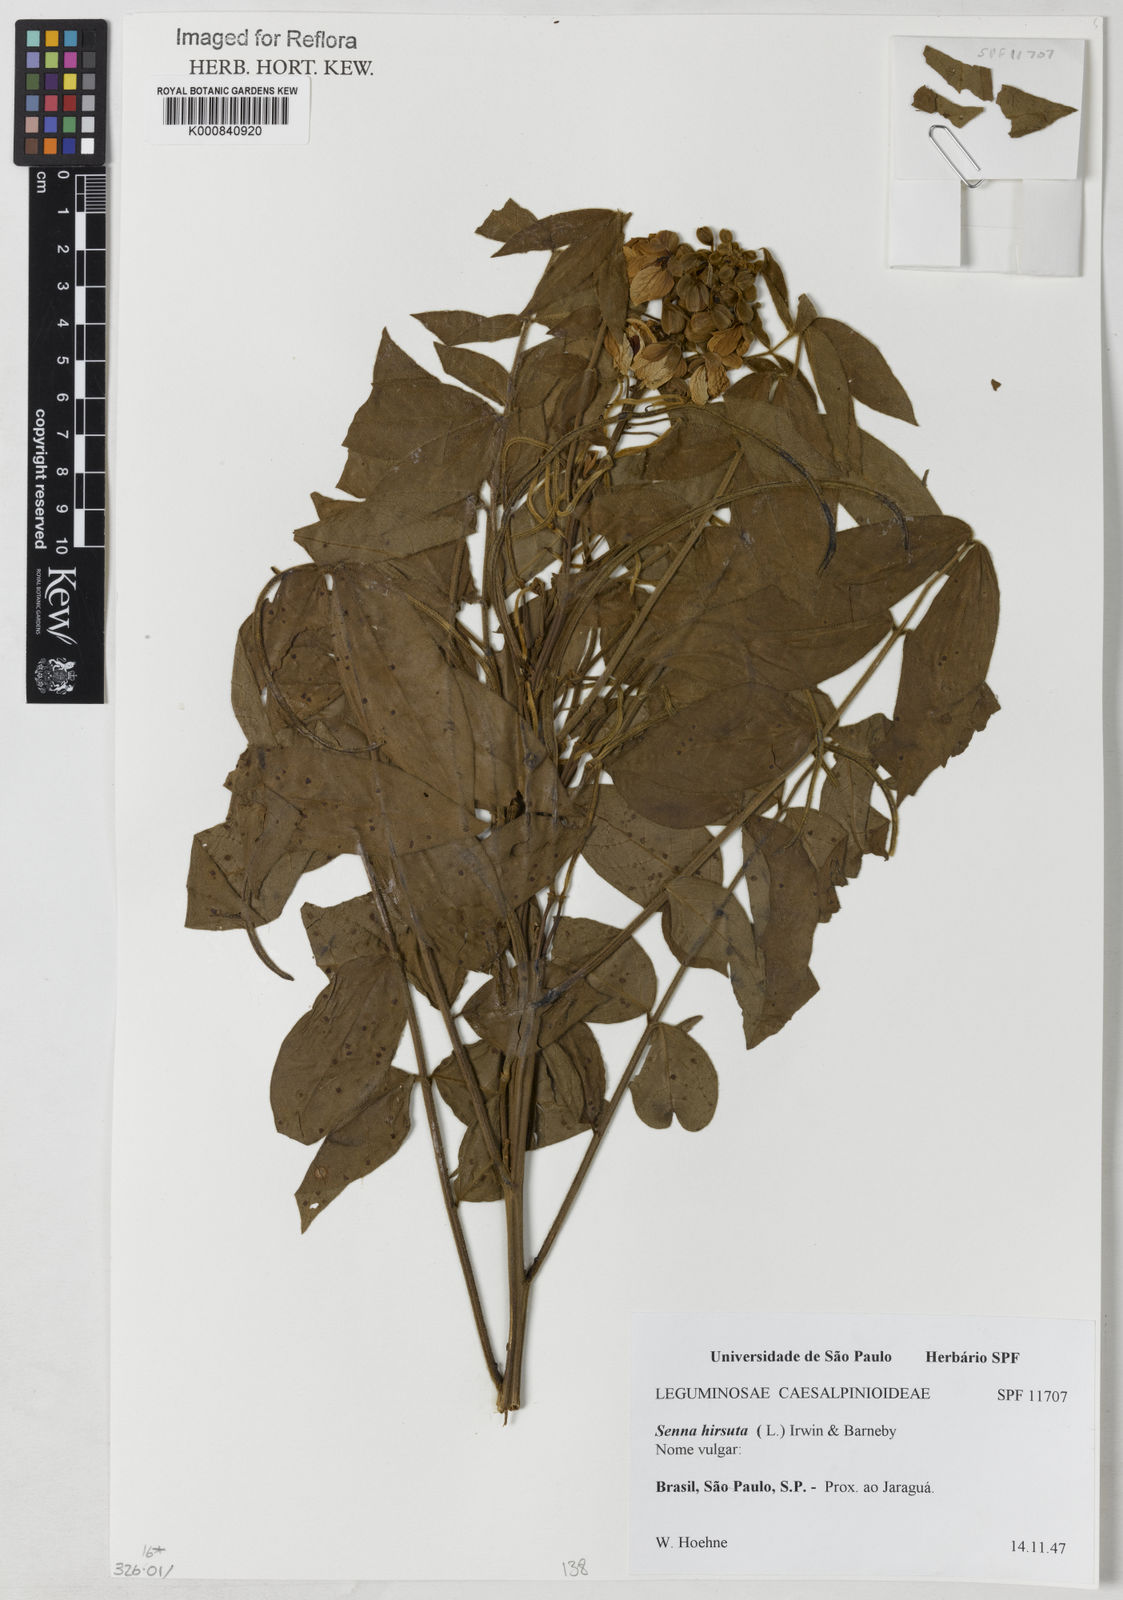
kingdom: Plantae
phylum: Tracheophyta
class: Magnoliopsida
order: Fabales
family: Fabaceae
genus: Senna
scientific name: Senna hirsuta
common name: Woolly senna
